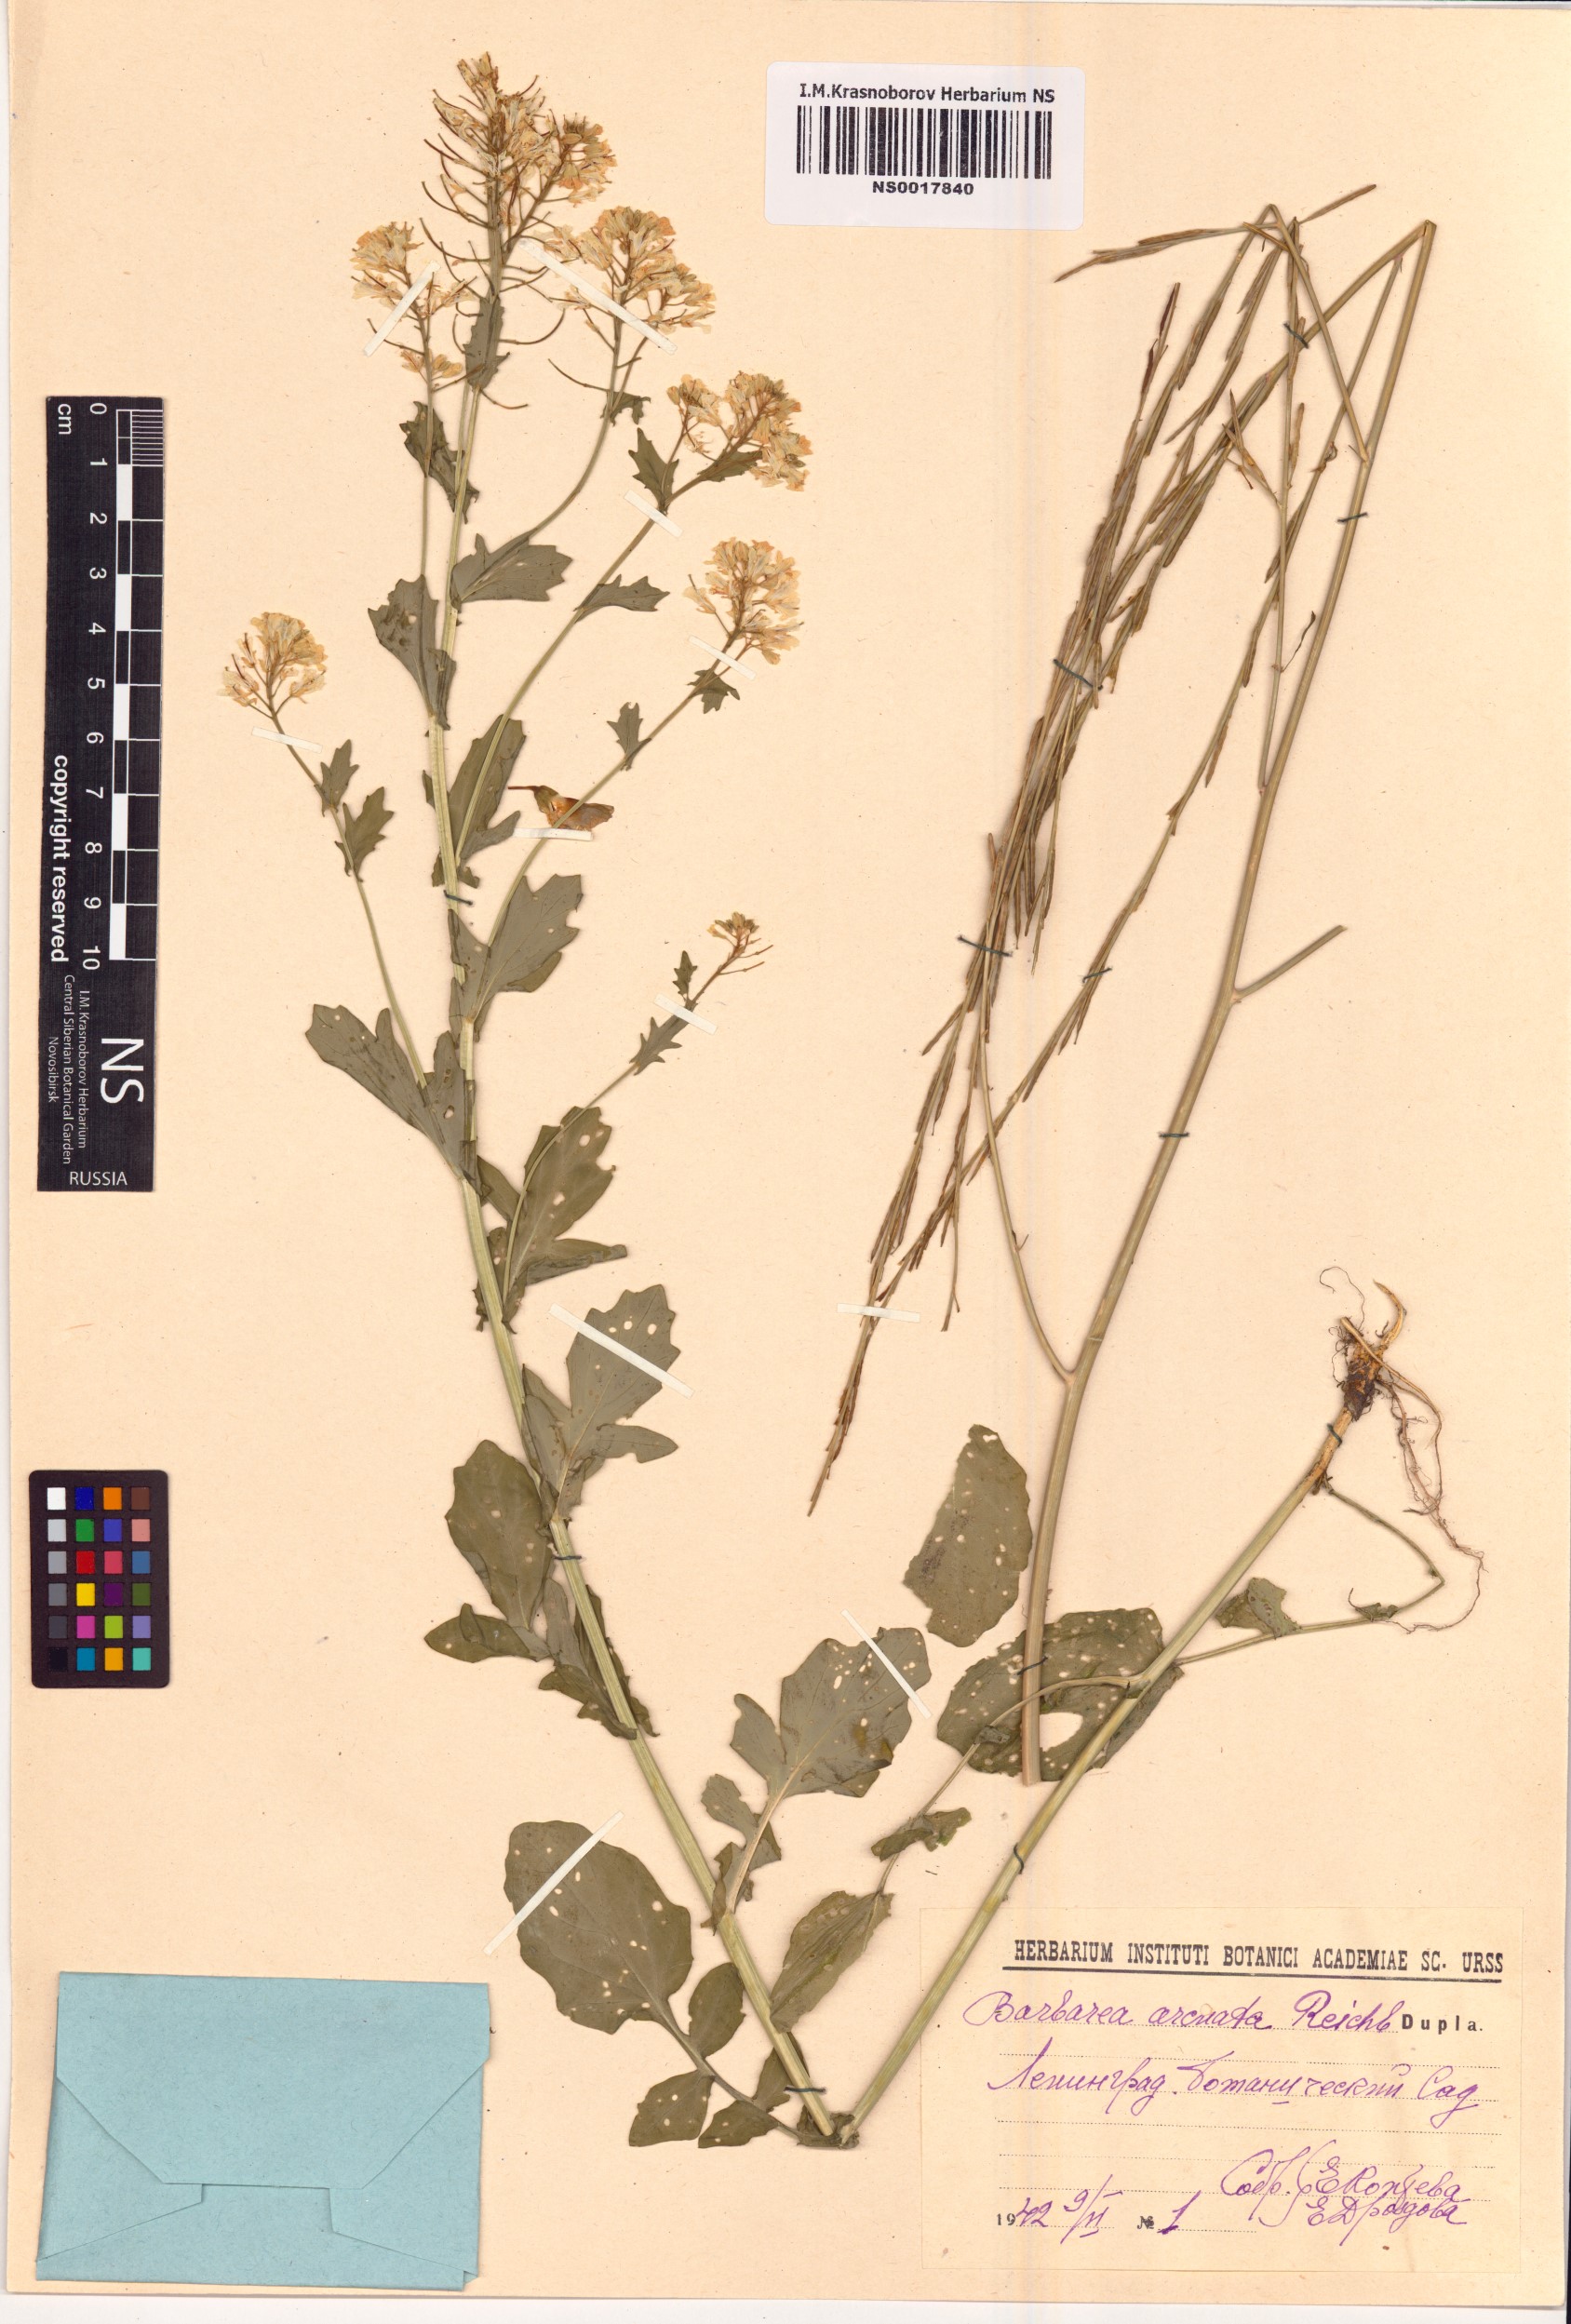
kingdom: Plantae
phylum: Tracheophyta
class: Magnoliopsida
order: Brassicales
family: Brassicaceae
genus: Barbarea
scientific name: Barbarea vulgaris
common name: Cressy-greens
